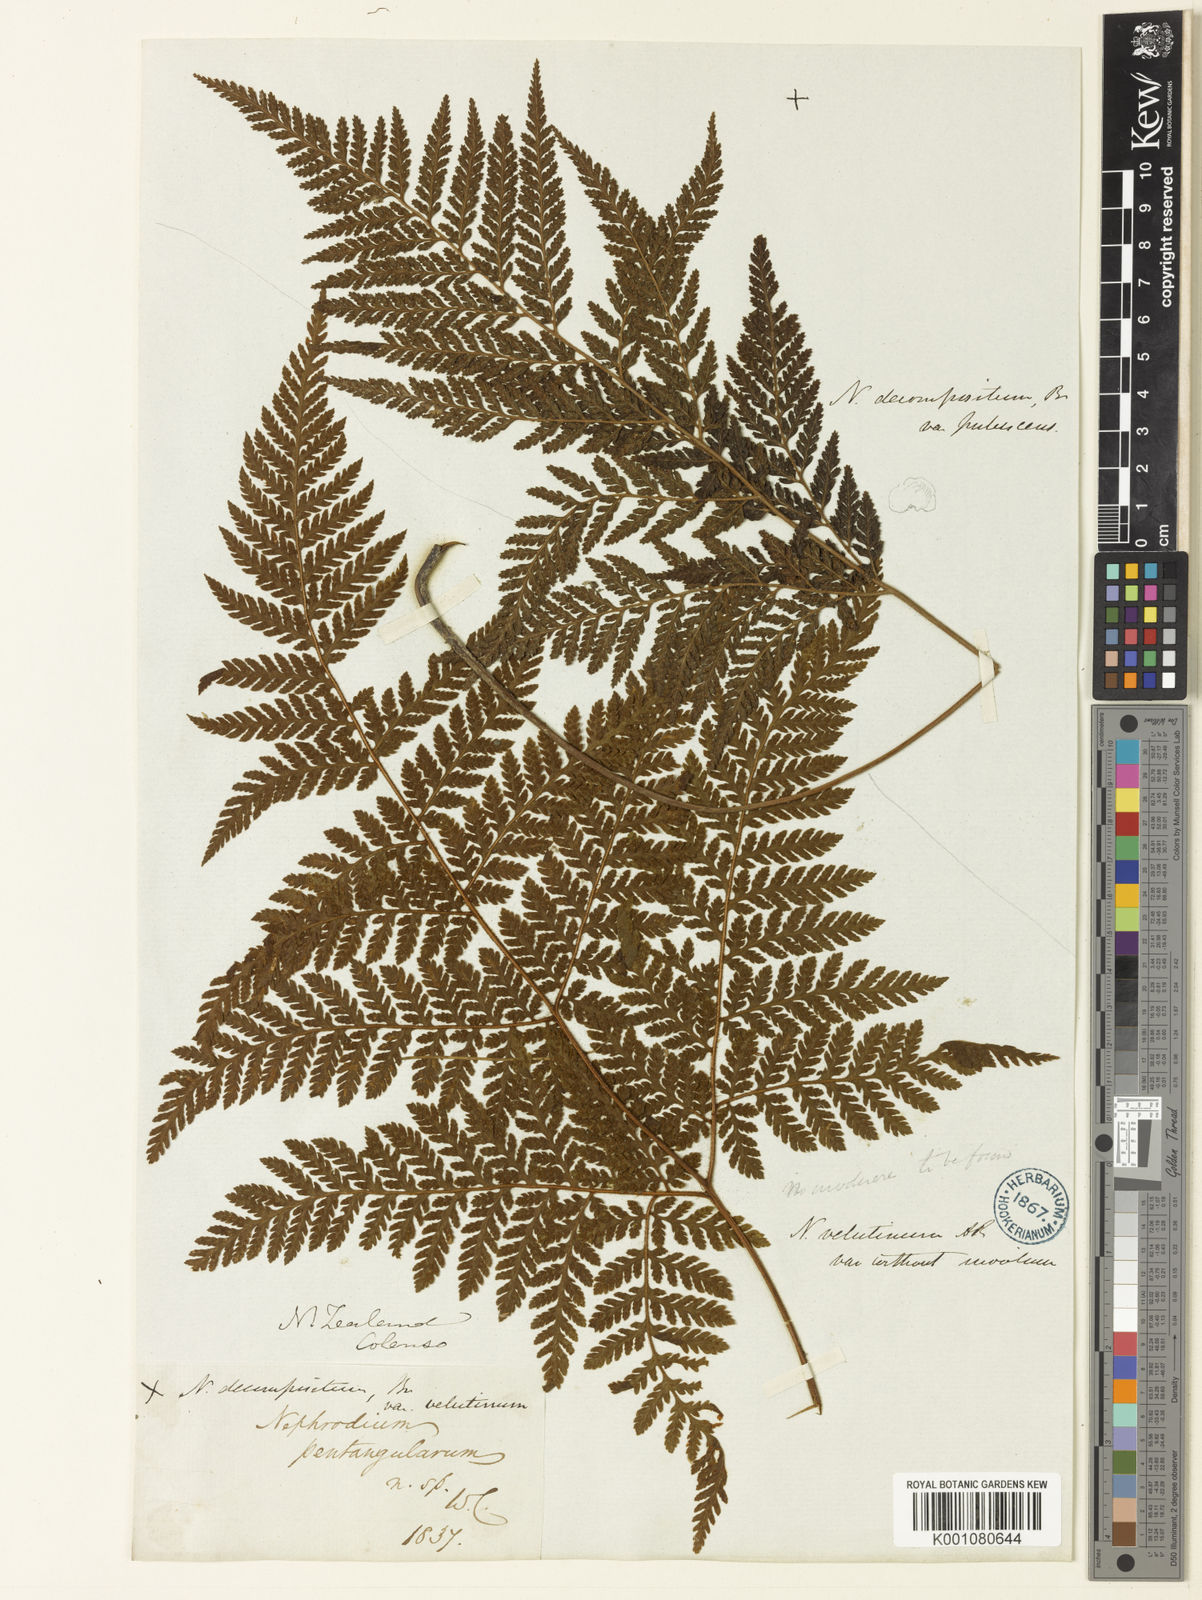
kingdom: Plantae
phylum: Tracheophyta
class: Polypodiopsida
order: Polypodiales
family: Dryopteridaceae
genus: Parapolystichum
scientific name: Parapolystichum microsorum
